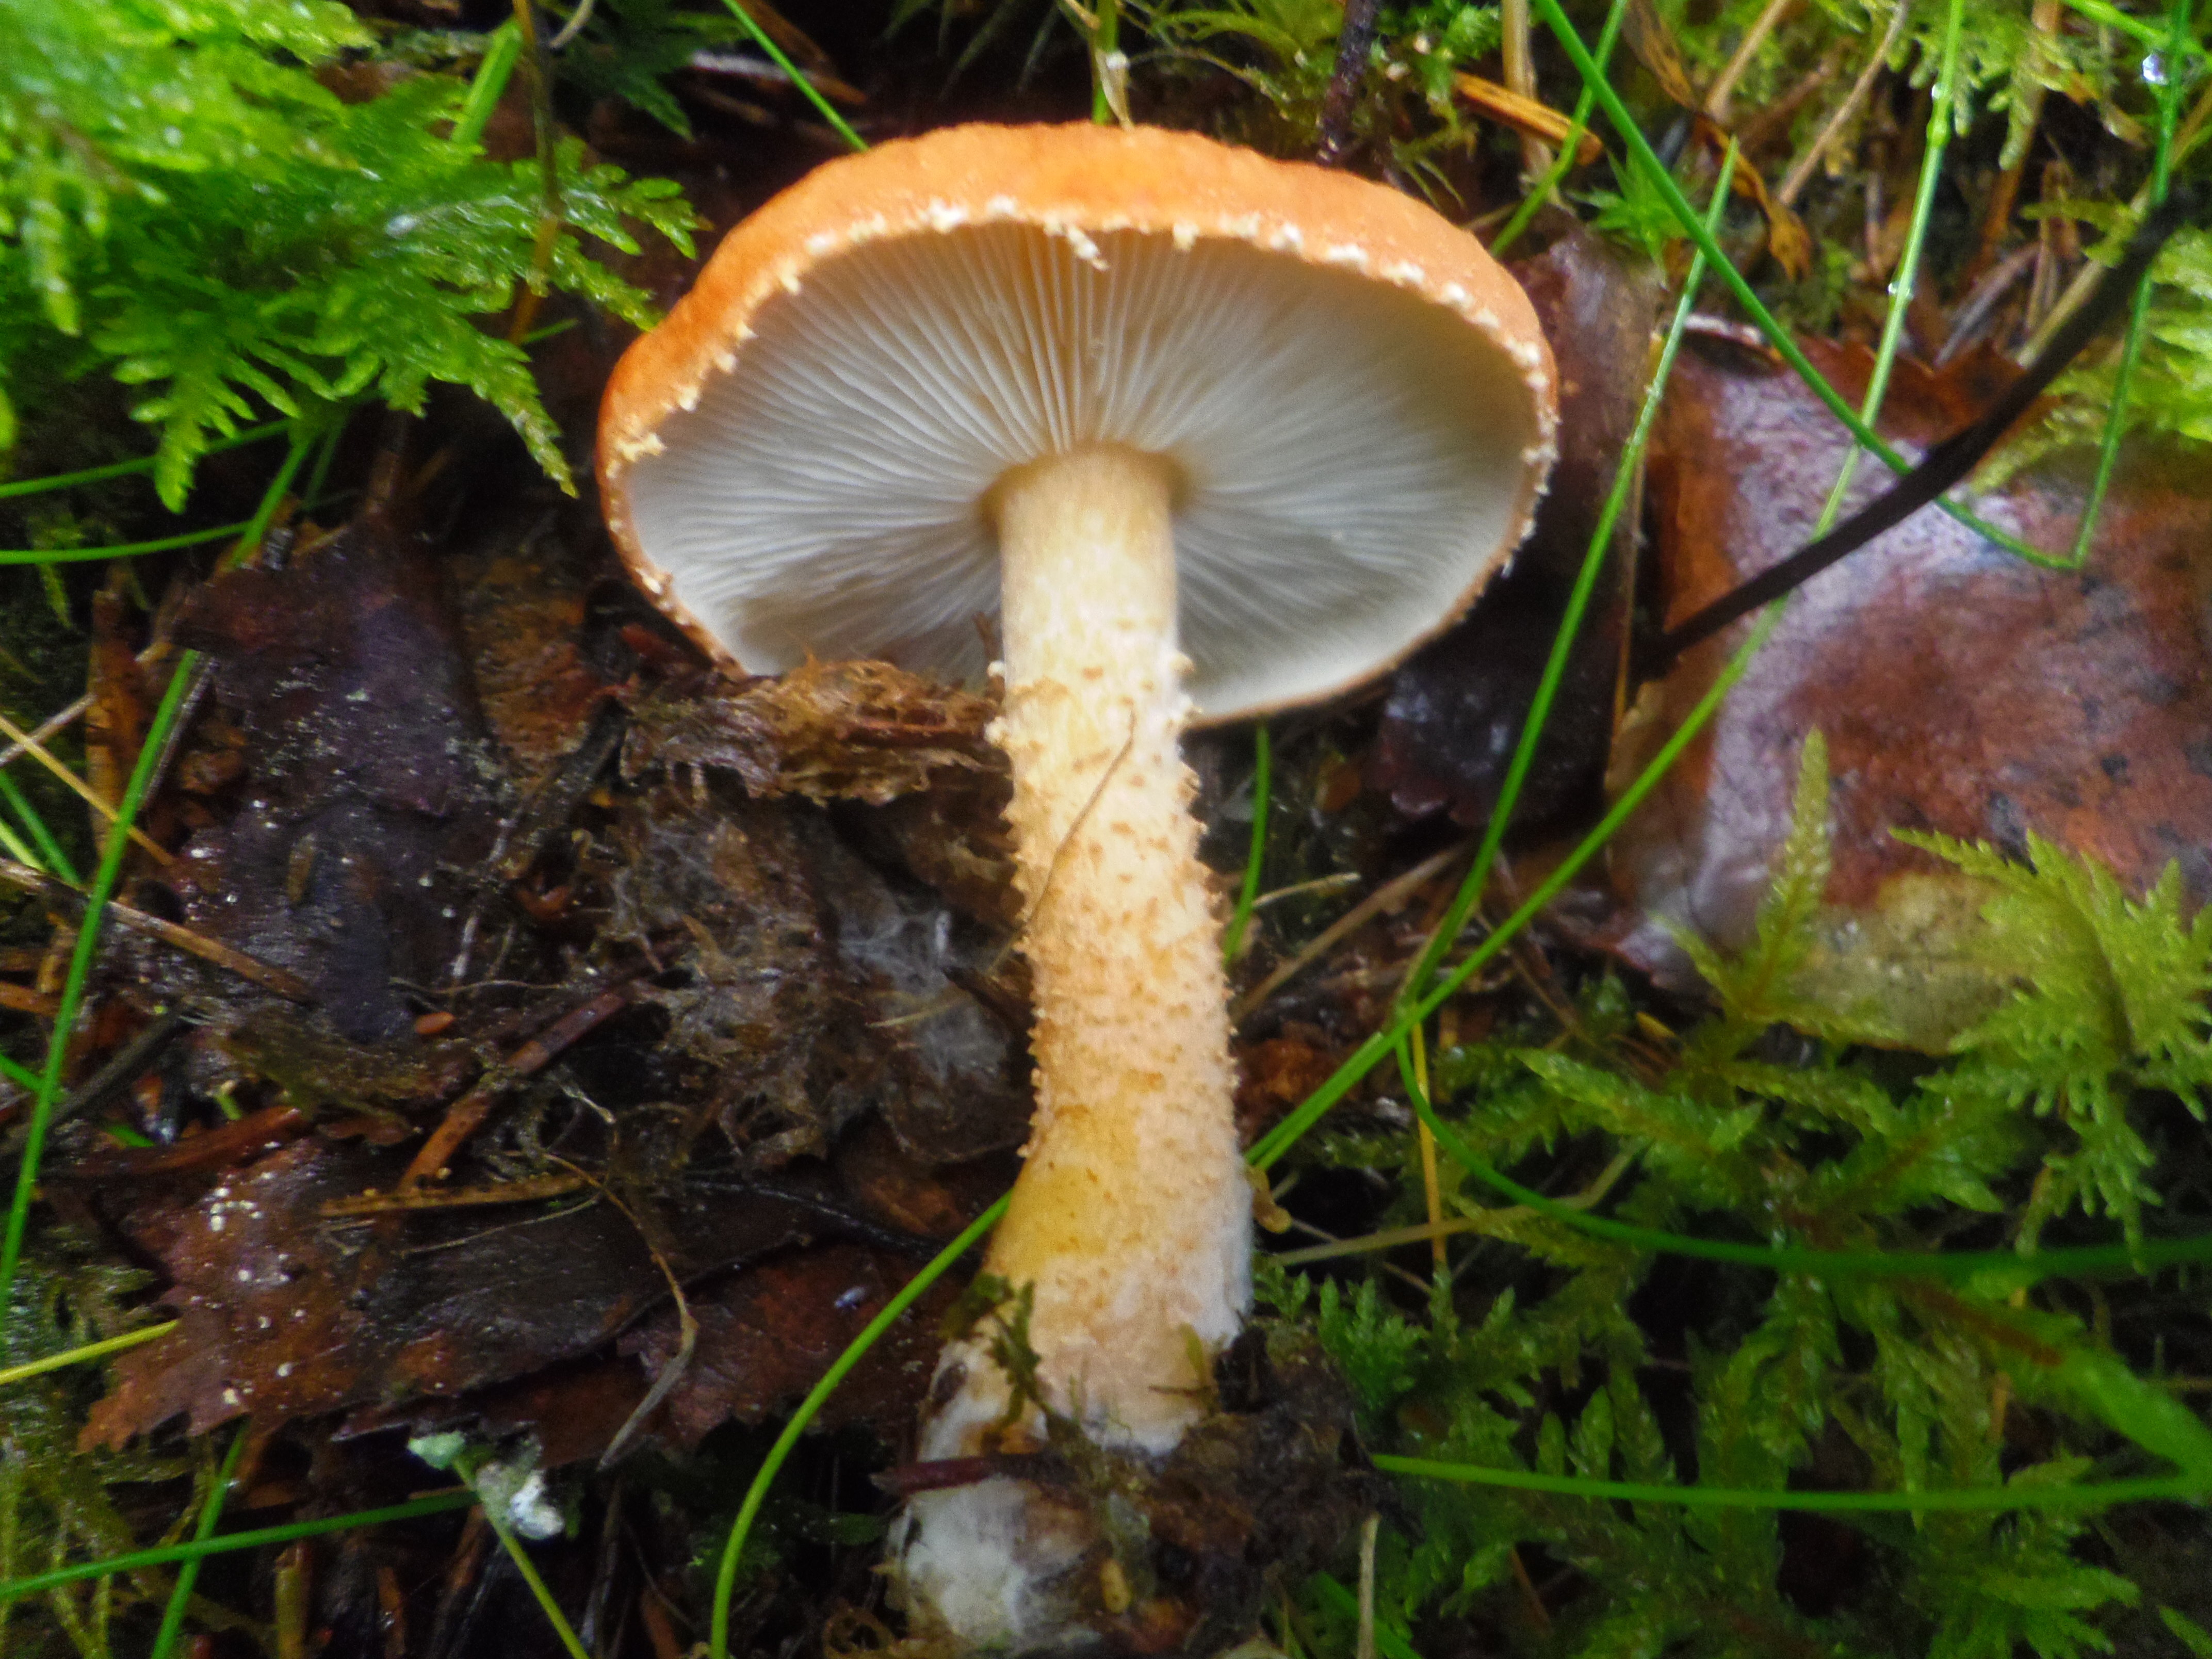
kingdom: Fungi
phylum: Basidiomycota
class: Agaricomycetes
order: Agaricales
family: Agaricaceae
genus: Cystodermella
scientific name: Cystodermella granulosa
